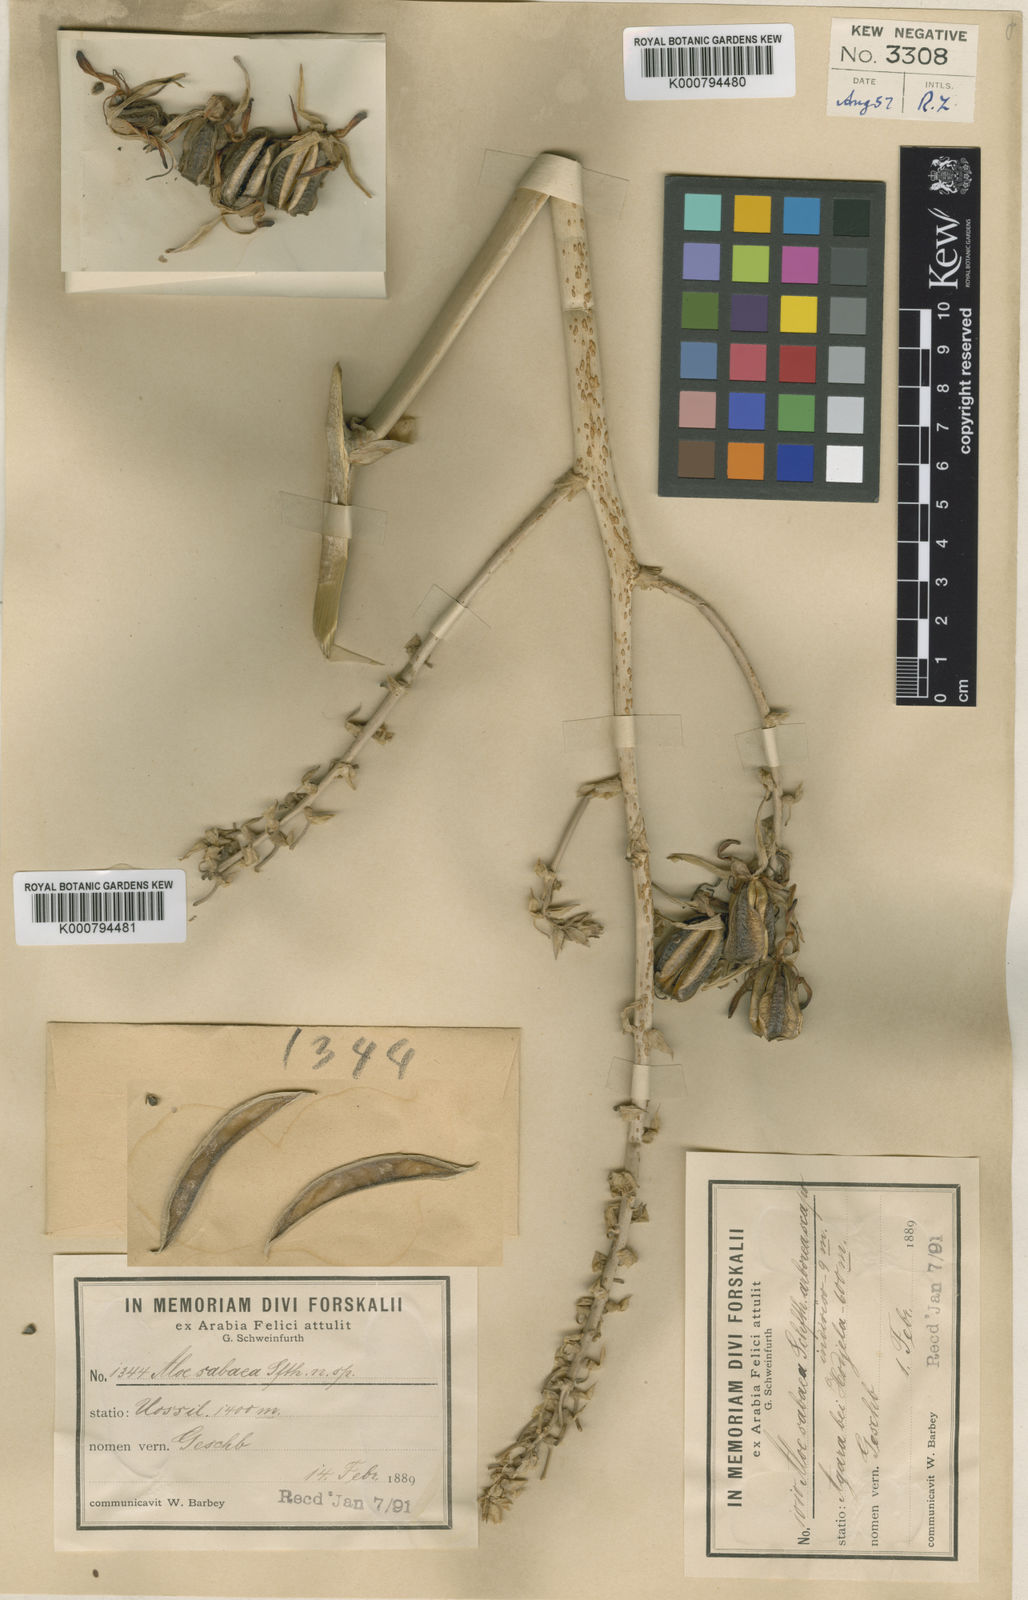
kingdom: Plantae
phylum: Tracheophyta
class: Liliopsida
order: Asparagales
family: Asphodelaceae
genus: Aloidendron
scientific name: Aloidendron sabaeum
